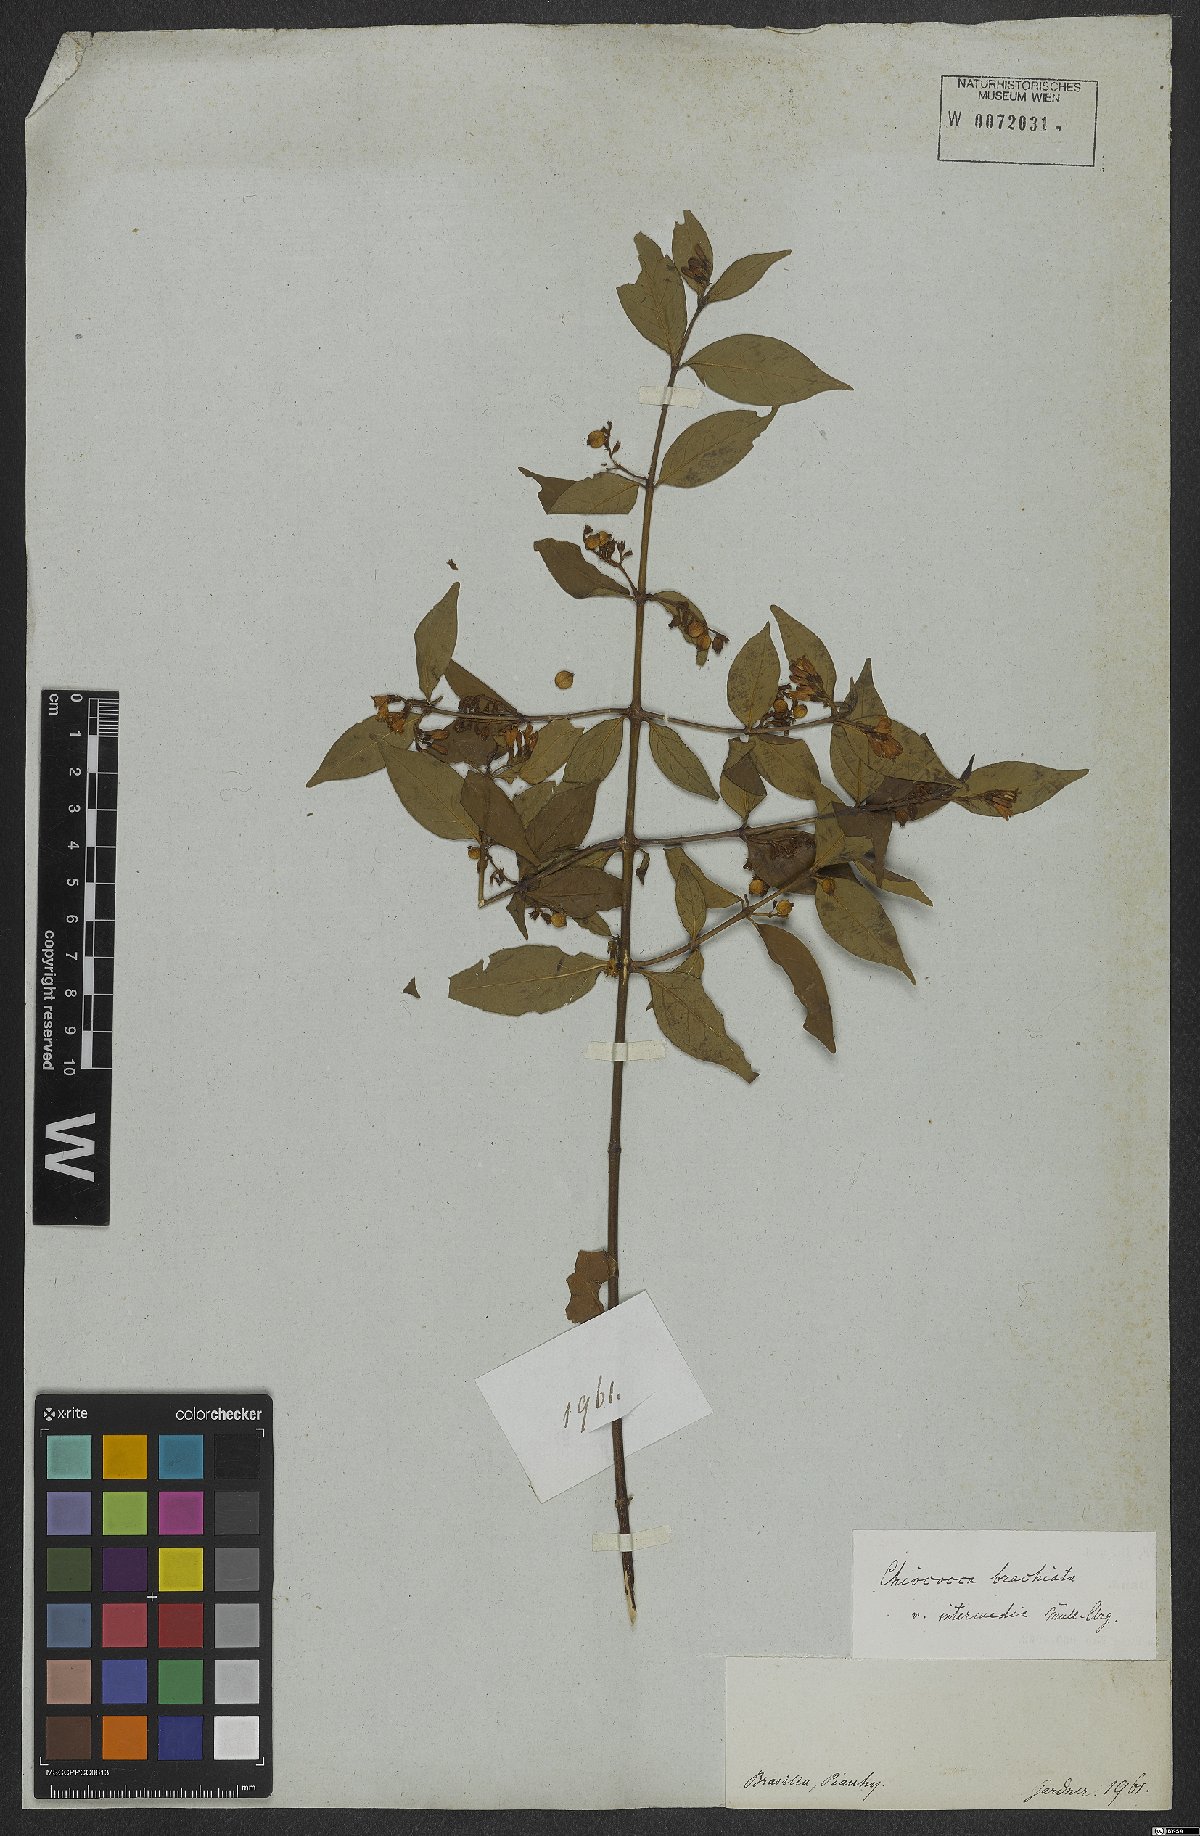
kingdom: Plantae
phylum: Tracheophyta
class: Magnoliopsida
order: Gentianales
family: Rubiaceae
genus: Chiococca
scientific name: Chiococca alba
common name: Snowberry
